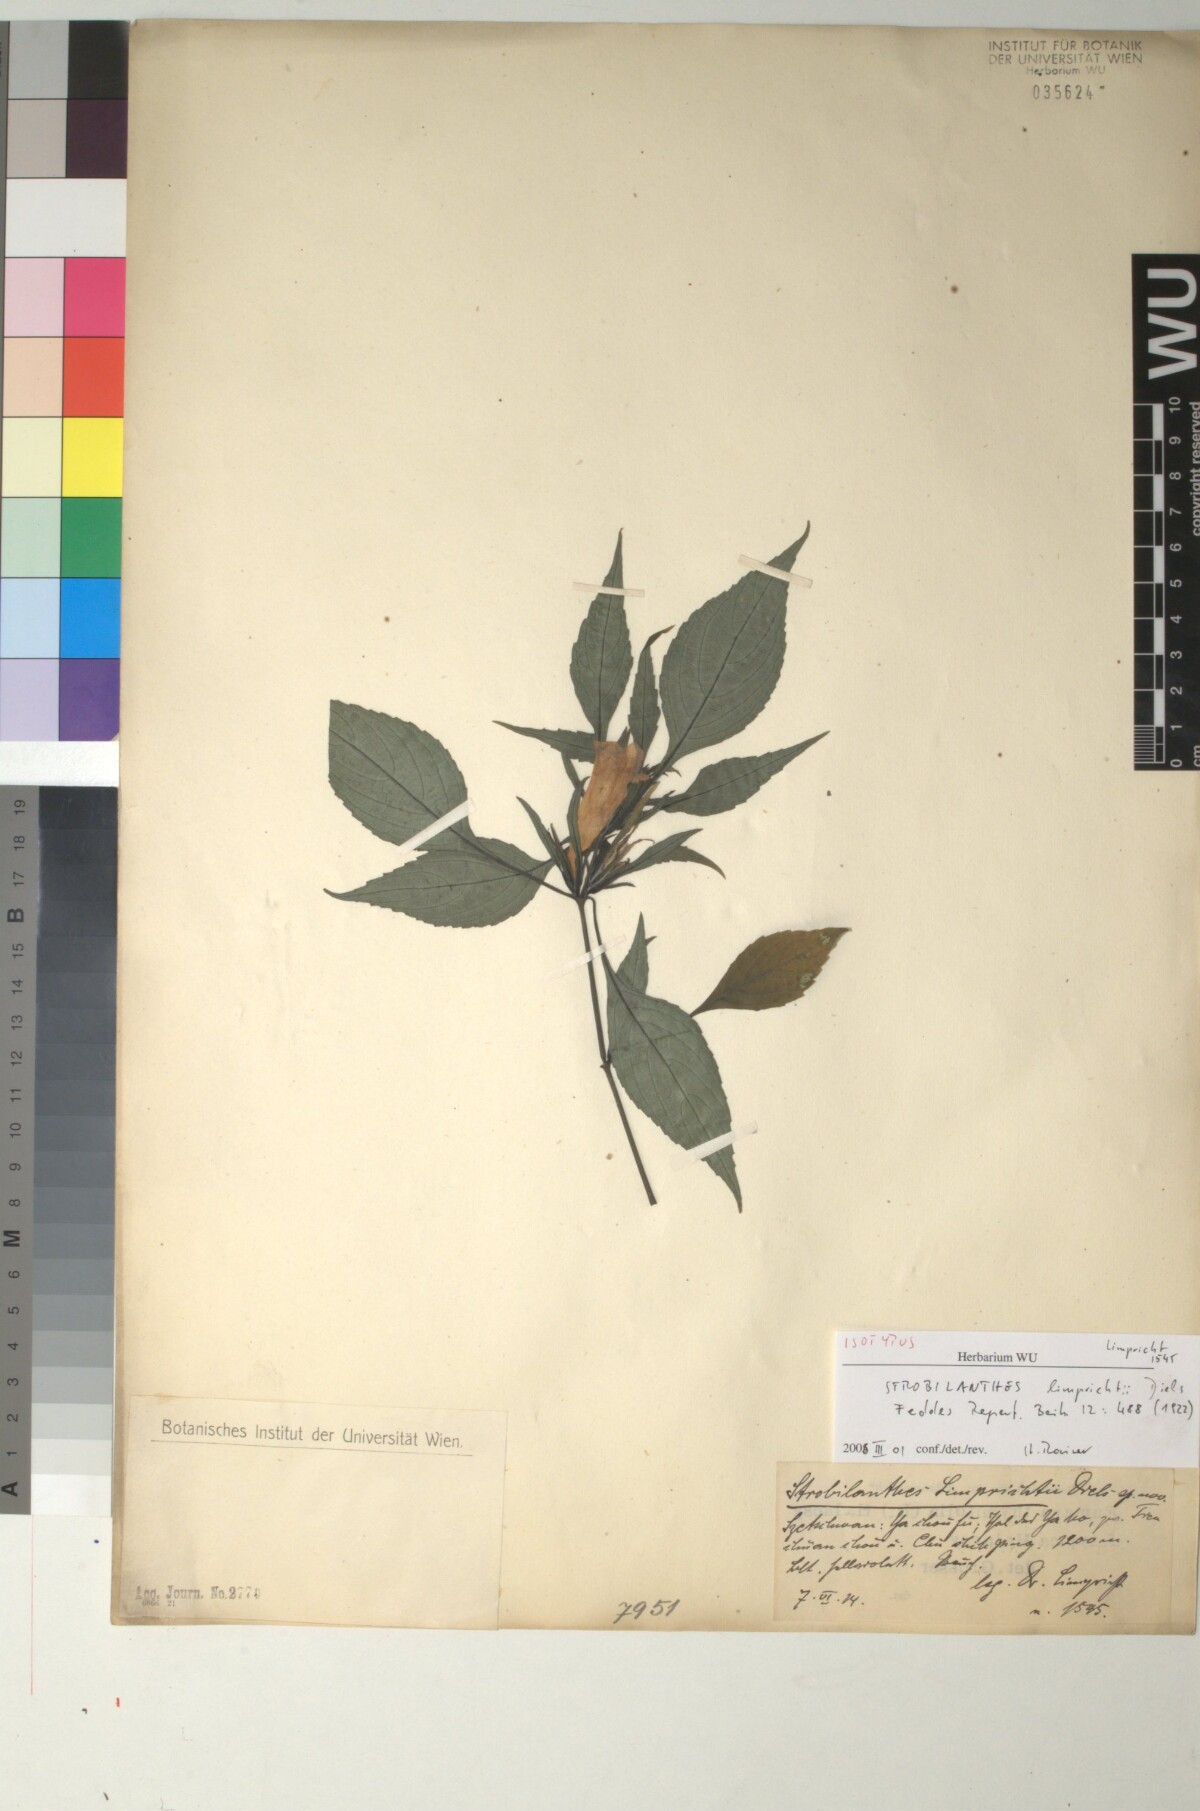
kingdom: Plantae
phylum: Tracheophyta
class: Magnoliopsida
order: Lamiales
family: Acanthaceae
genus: Strobilanthes
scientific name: Strobilanthes yunnanensis
